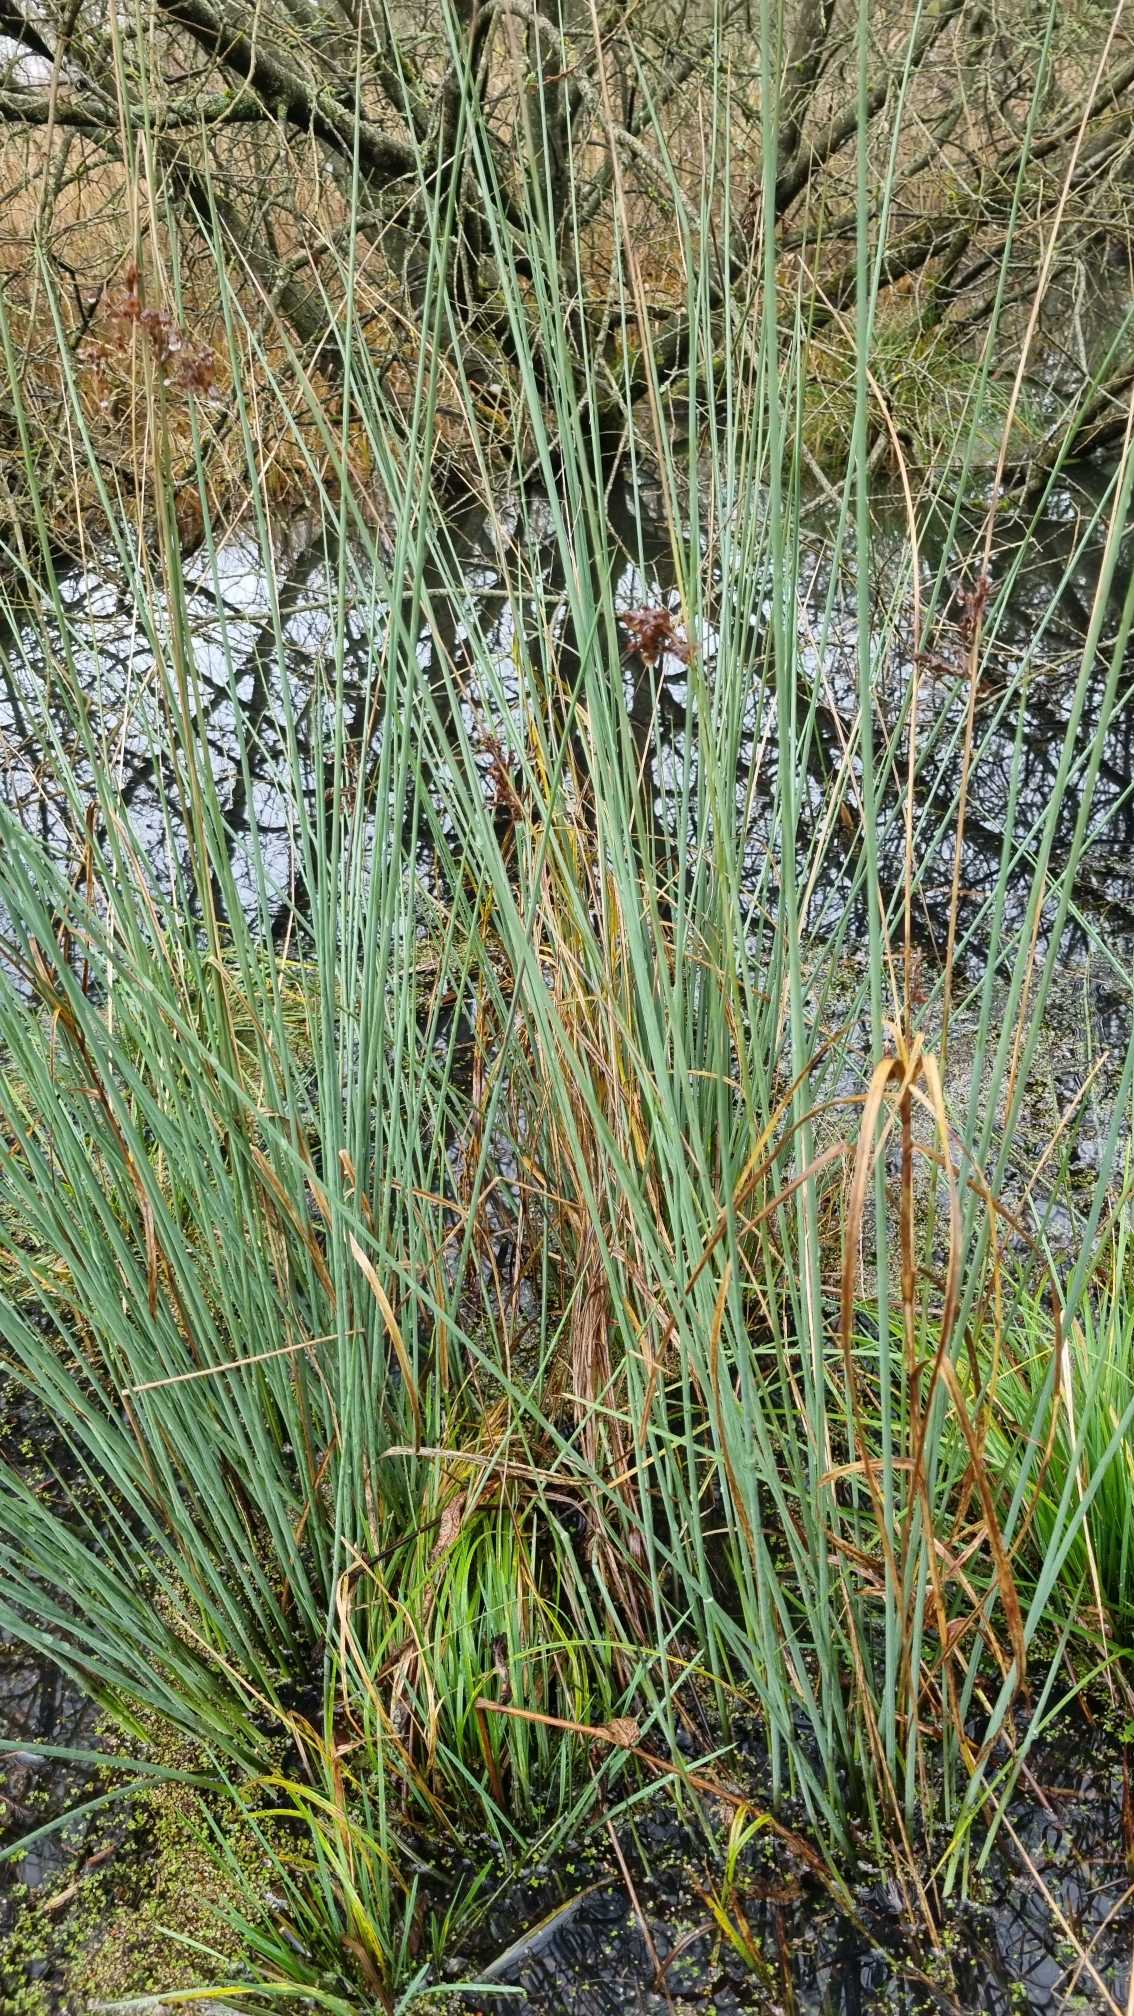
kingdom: Plantae
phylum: Tracheophyta
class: Liliopsida
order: Poales
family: Juncaceae
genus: Juncus
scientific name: Juncus inflexus
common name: Blågrå siv
